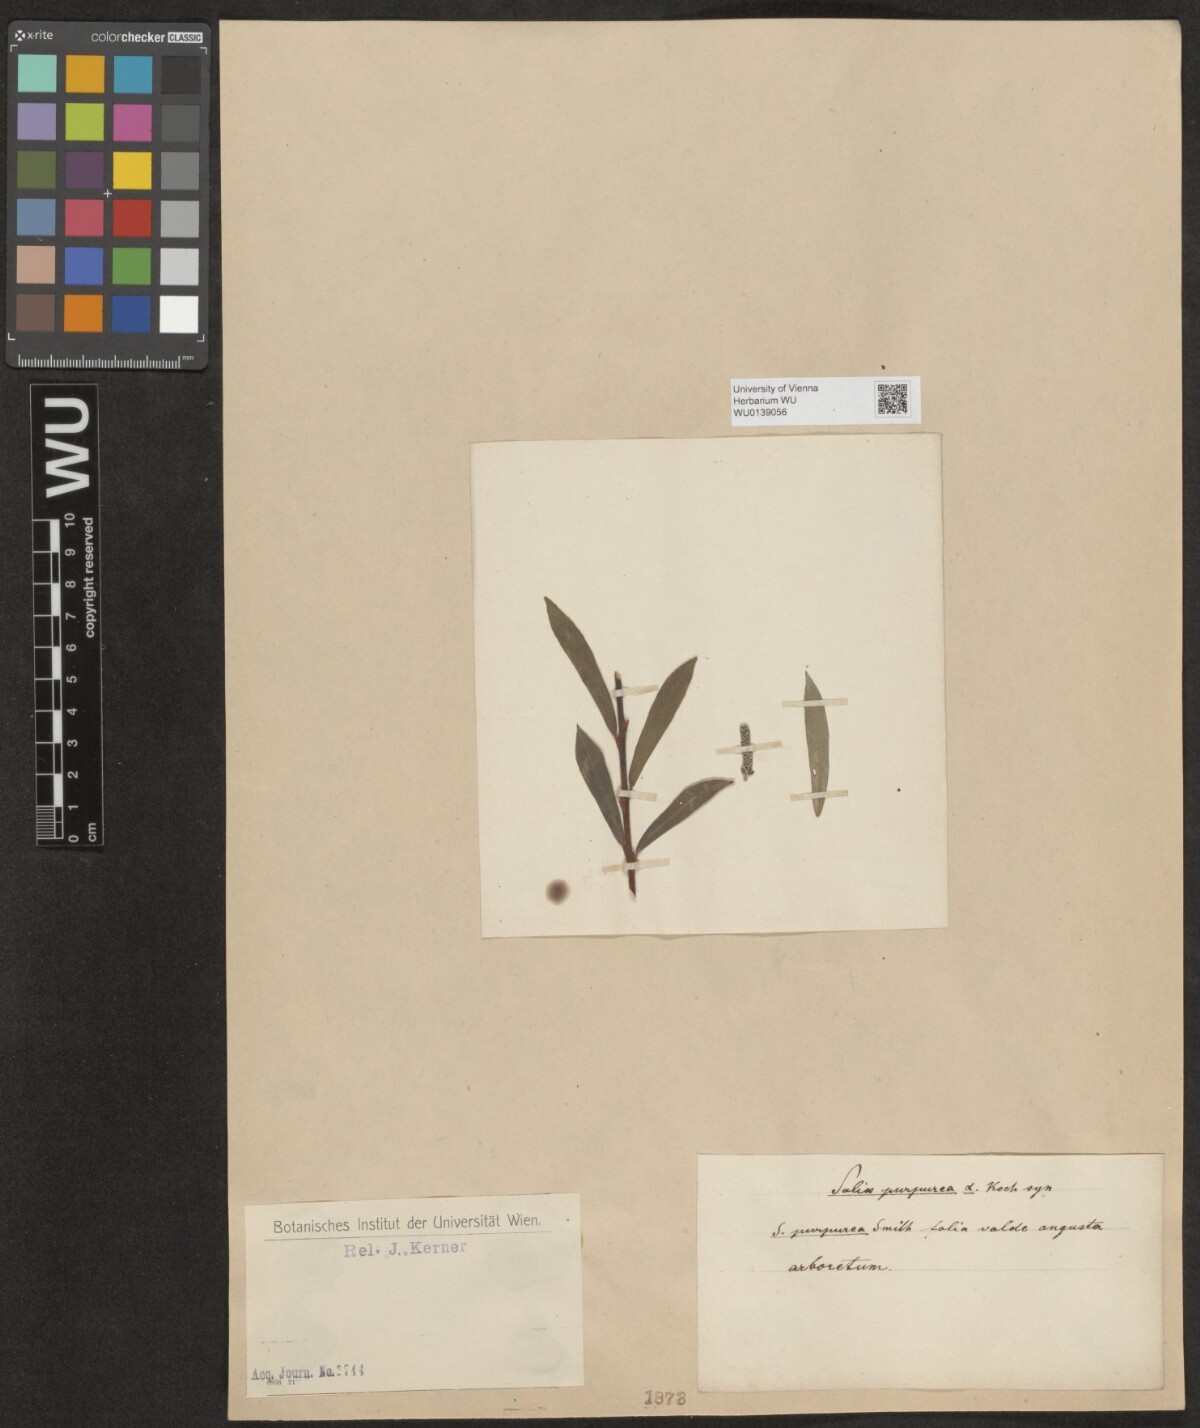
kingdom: Plantae
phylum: Tracheophyta
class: Magnoliopsida
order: Malpighiales
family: Salicaceae
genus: Salix
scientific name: Salix purpurea
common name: Purple willow
